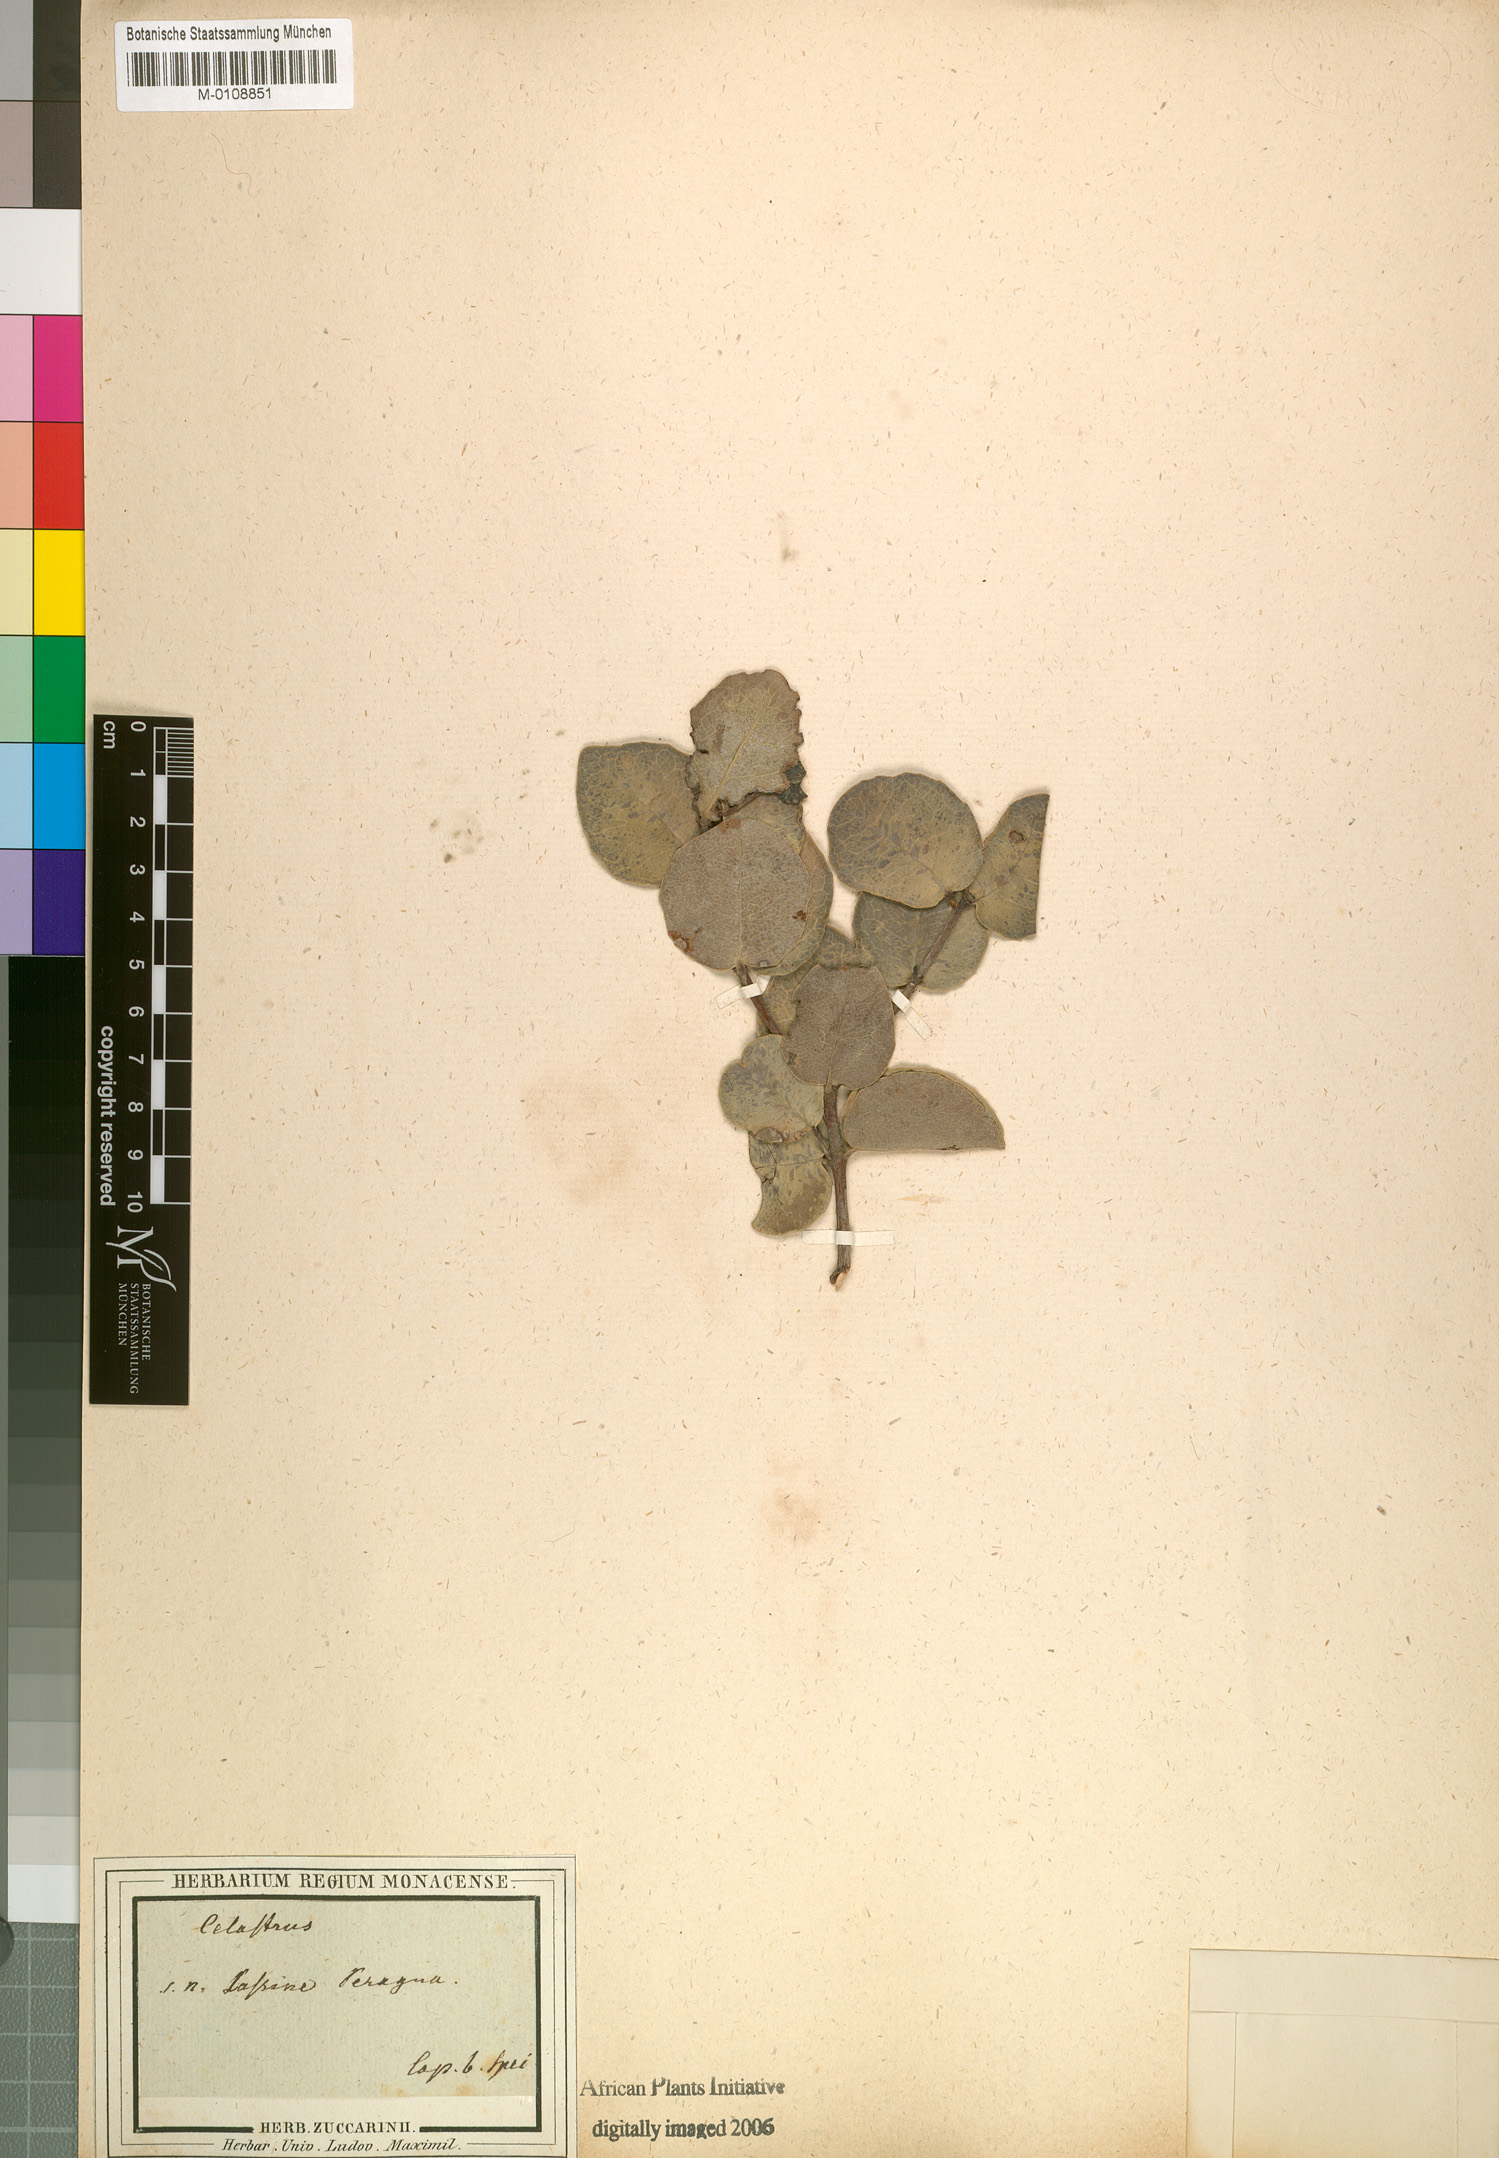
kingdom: Plantae
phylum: Tracheophyta
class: Magnoliopsida
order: Celastrales
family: Celastraceae
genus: Cassine
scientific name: Cassine peragua
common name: Cape saffron
